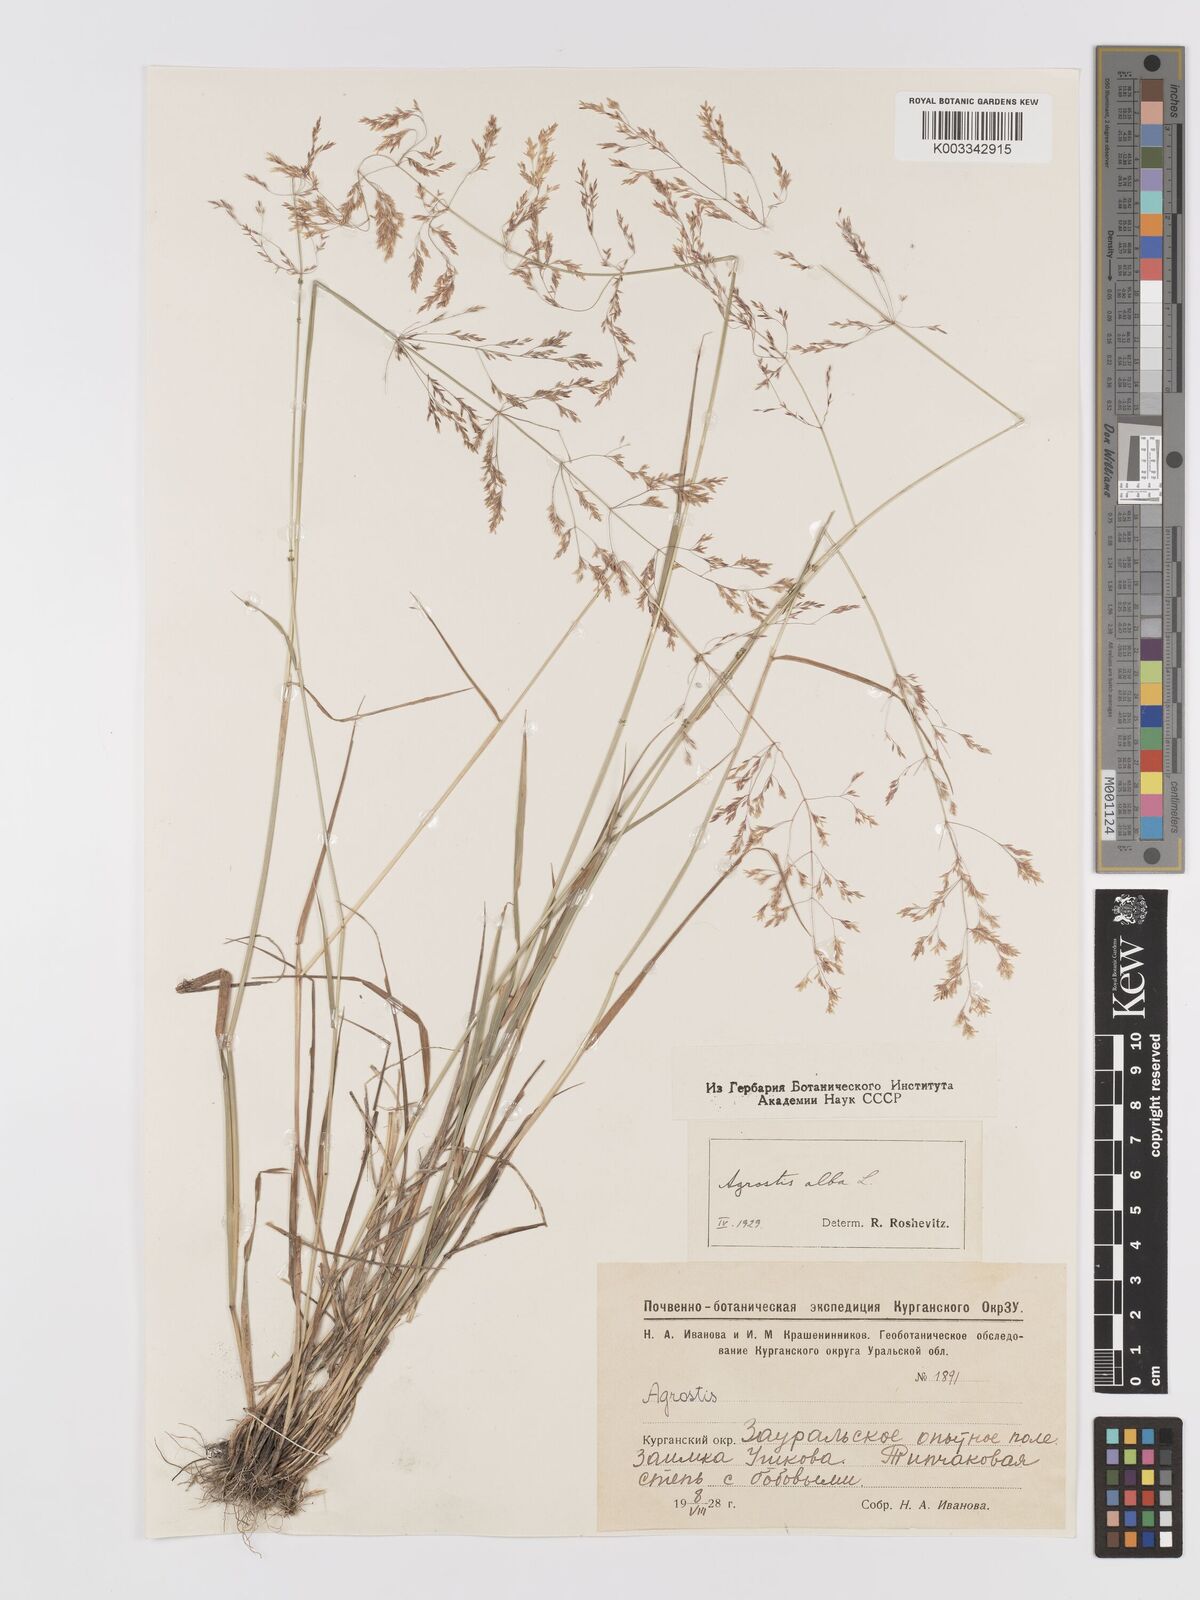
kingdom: Plantae
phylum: Tracheophyta
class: Liliopsida
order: Poales
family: Poaceae
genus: Agrostis
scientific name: Agrostis gigantea
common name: Black bent
